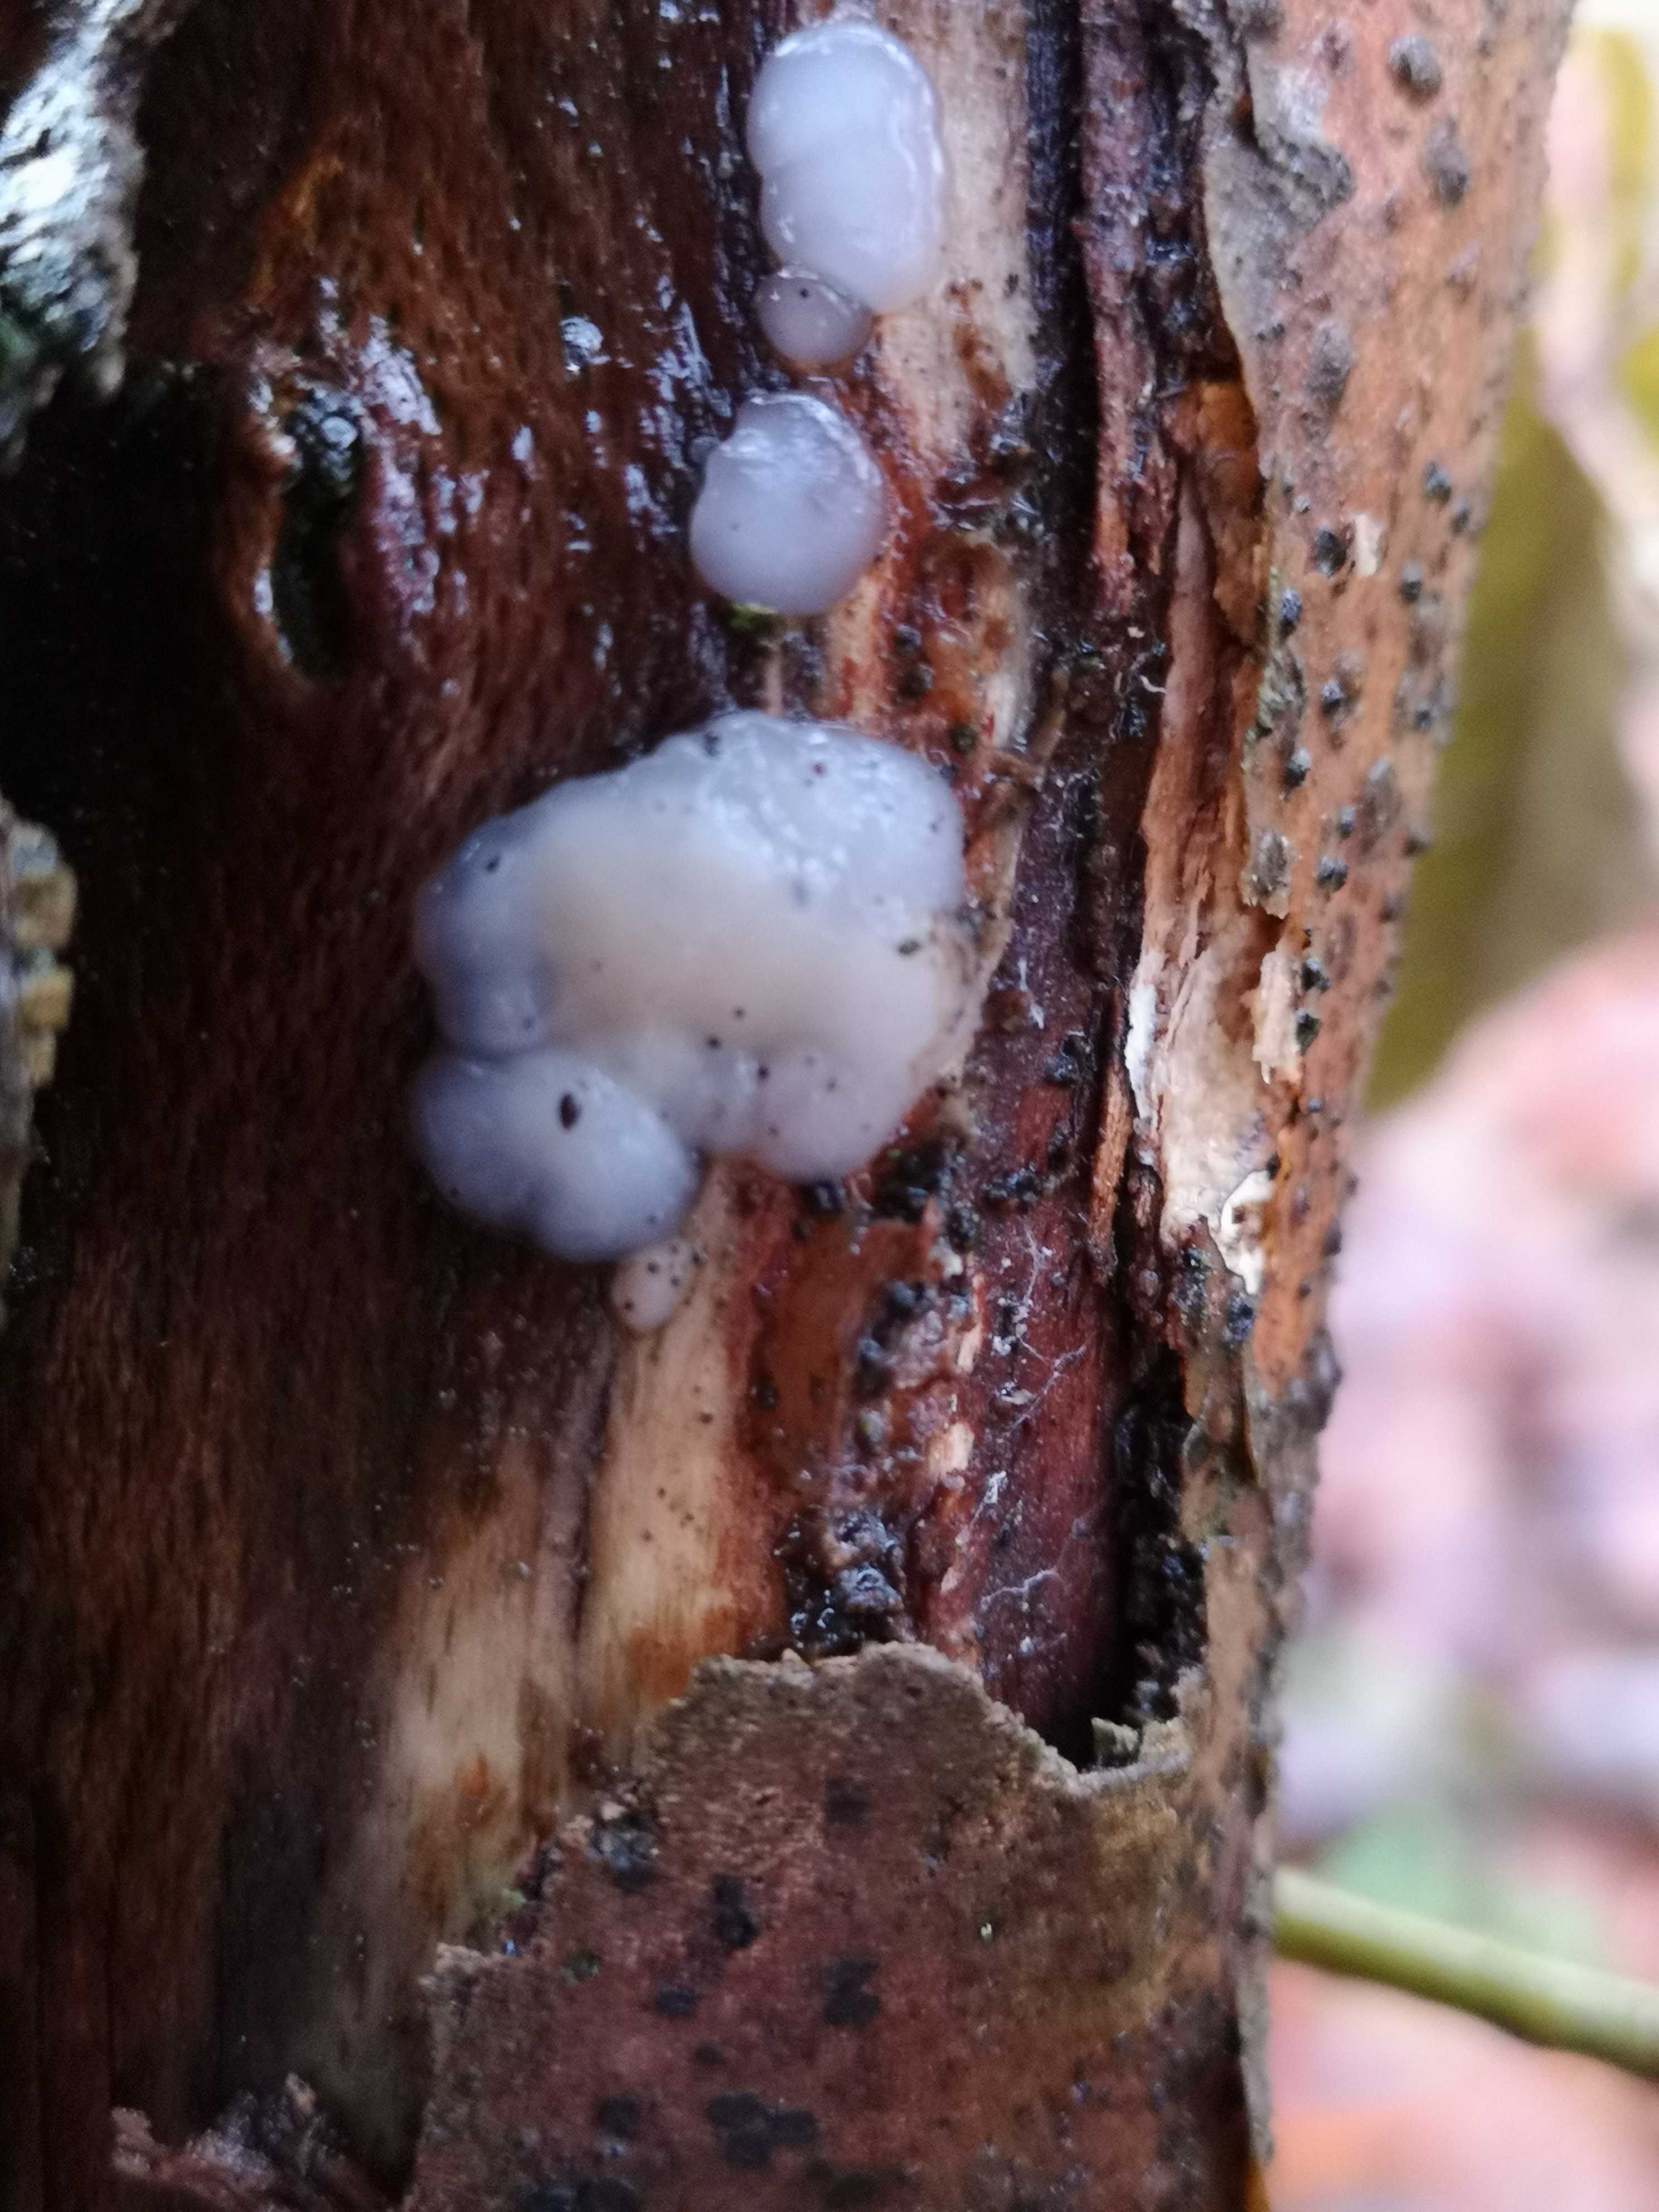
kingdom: Fungi
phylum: Basidiomycota
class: Agaricomycetes
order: Auriculariales
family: Auriculariaceae
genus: Exidia
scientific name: Exidia thuretiana
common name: hvidlig bævretop
